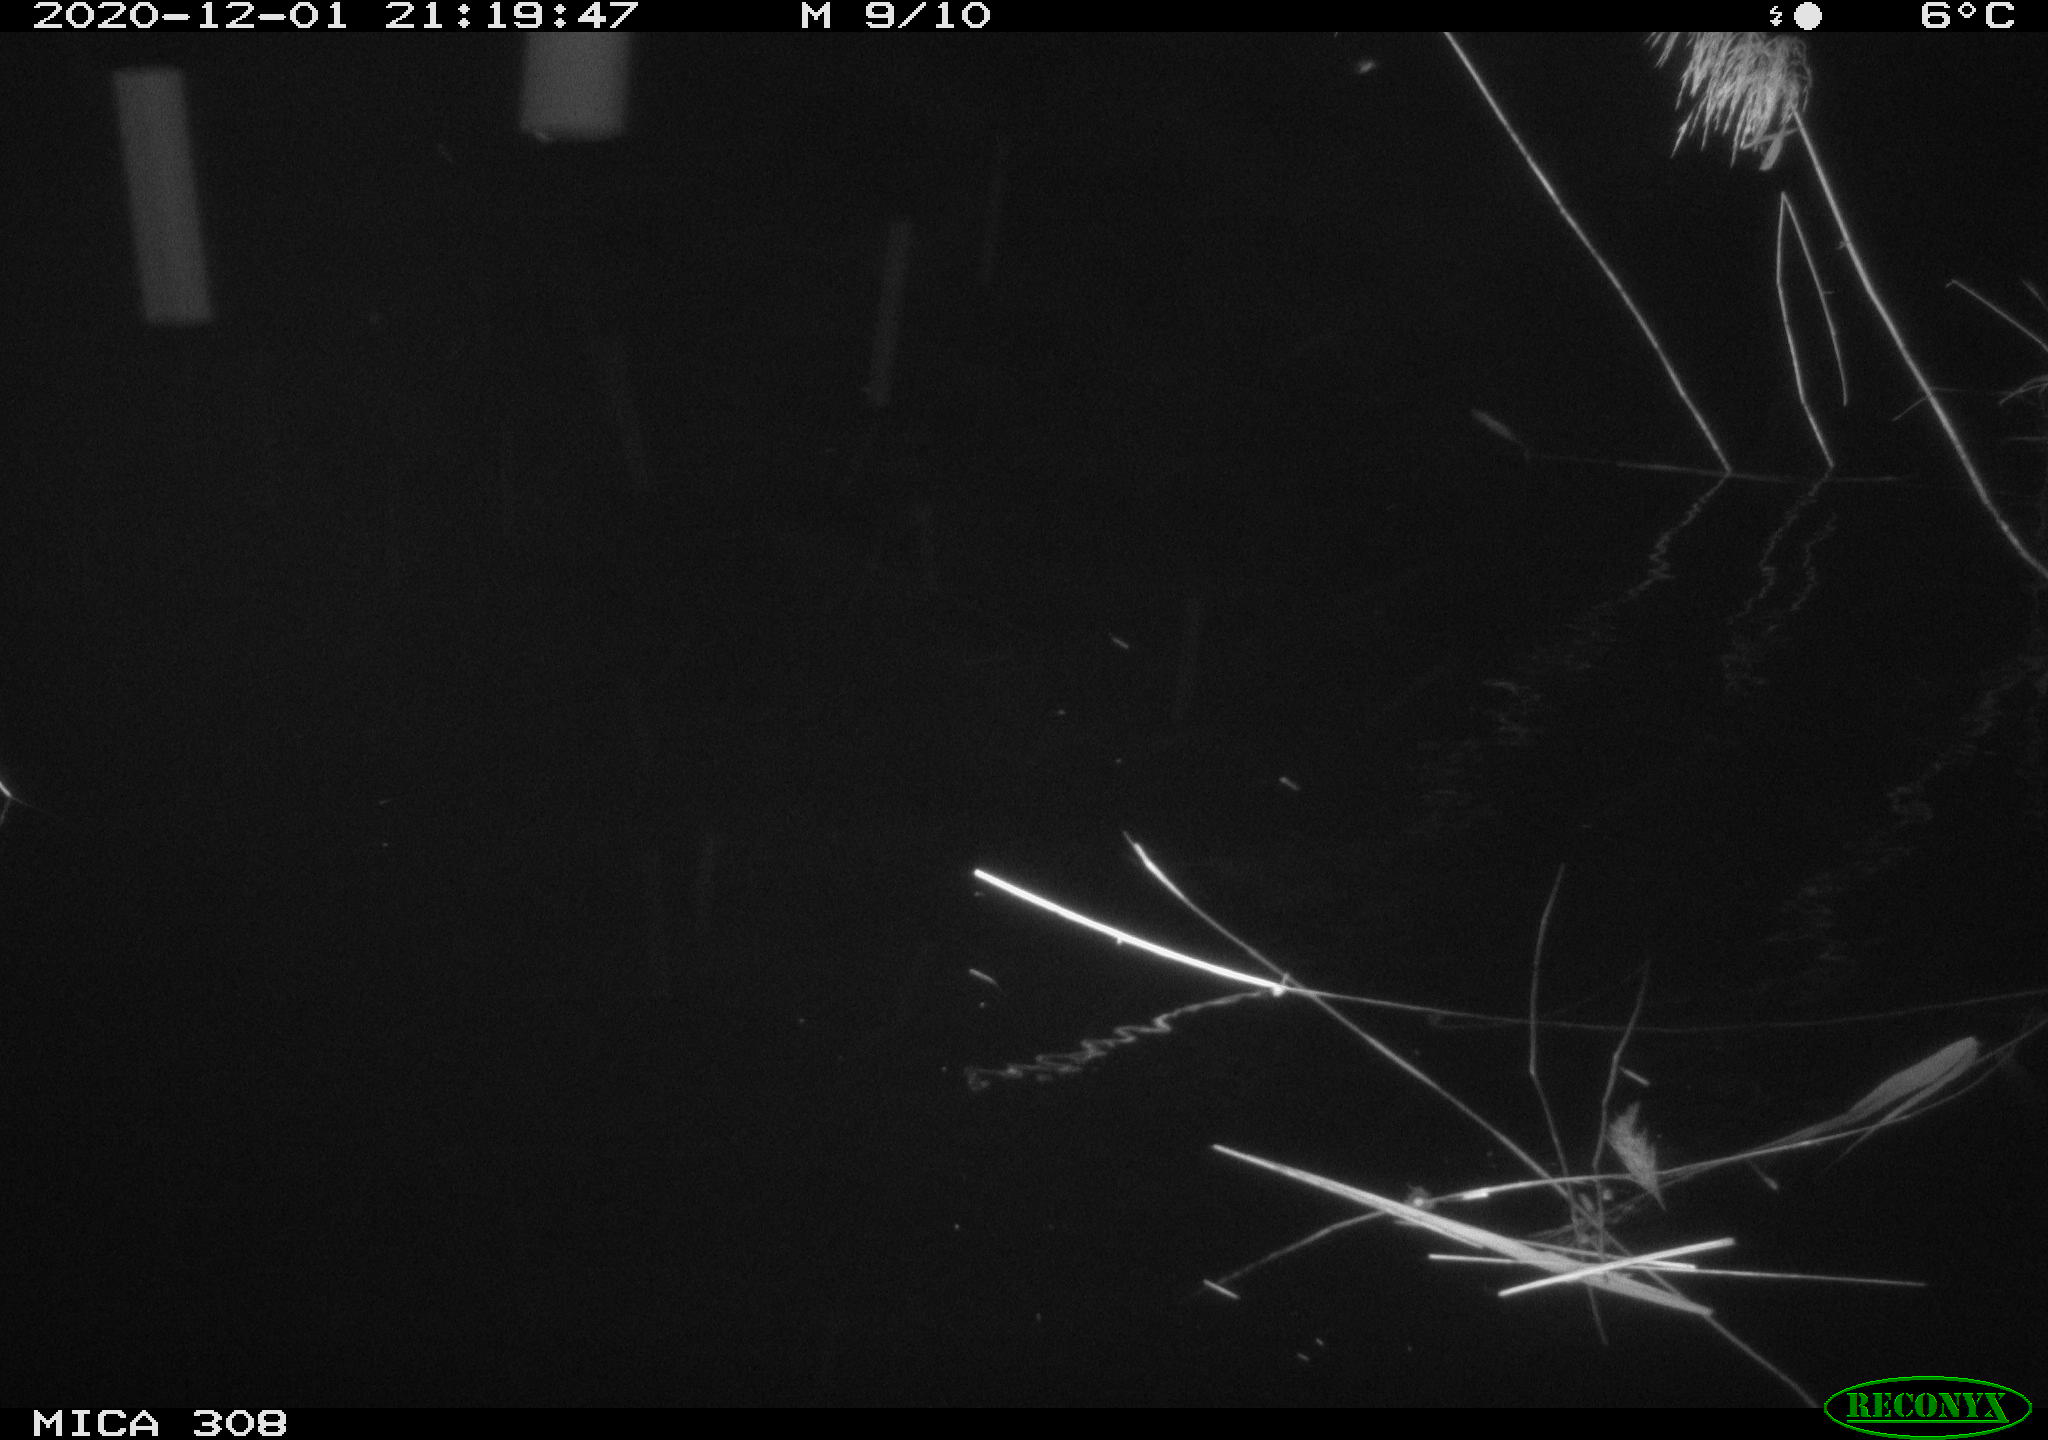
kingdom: Animalia
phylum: Chordata
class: Aves
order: Anseriformes
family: Anatidae
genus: Anas
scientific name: Anas platyrhynchos
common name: Mallard
